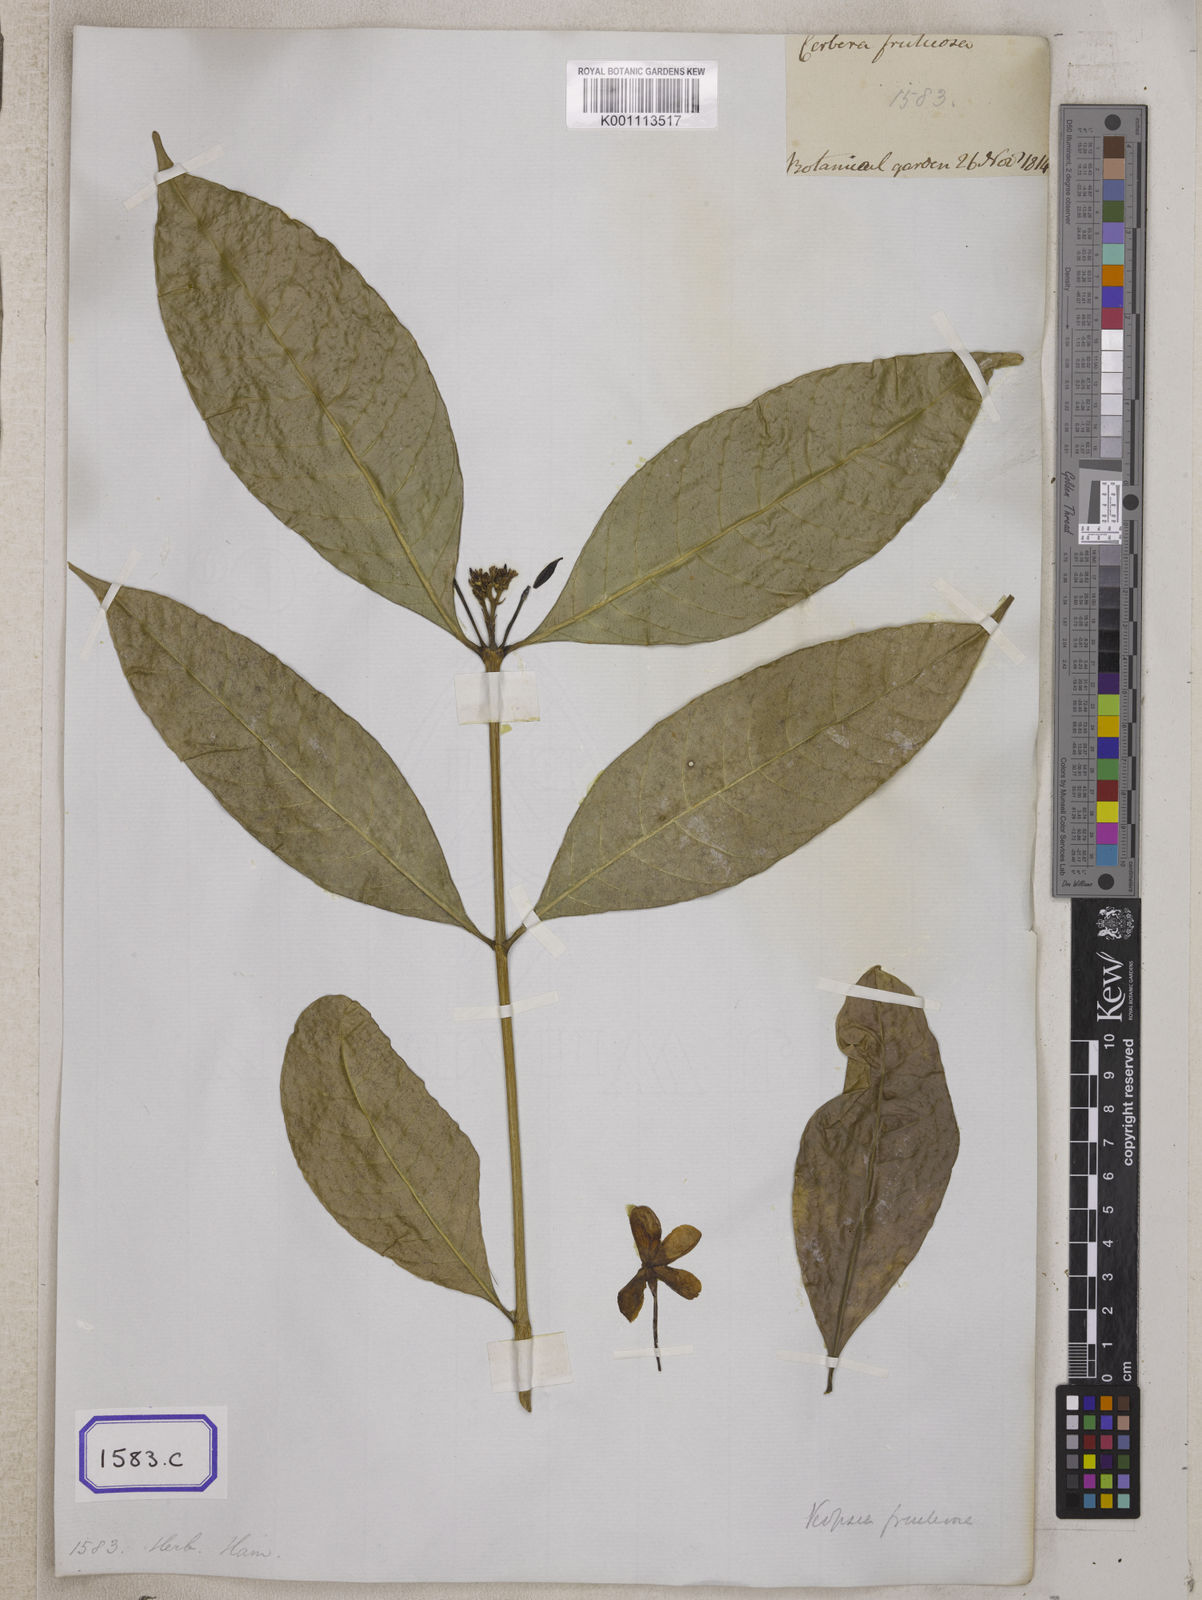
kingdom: Plantae
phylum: Tracheophyta
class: Magnoliopsida
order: Gentianales
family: Apocynaceae
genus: Kopsia
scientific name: Kopsia fruticosa
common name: Shrub-vinca
